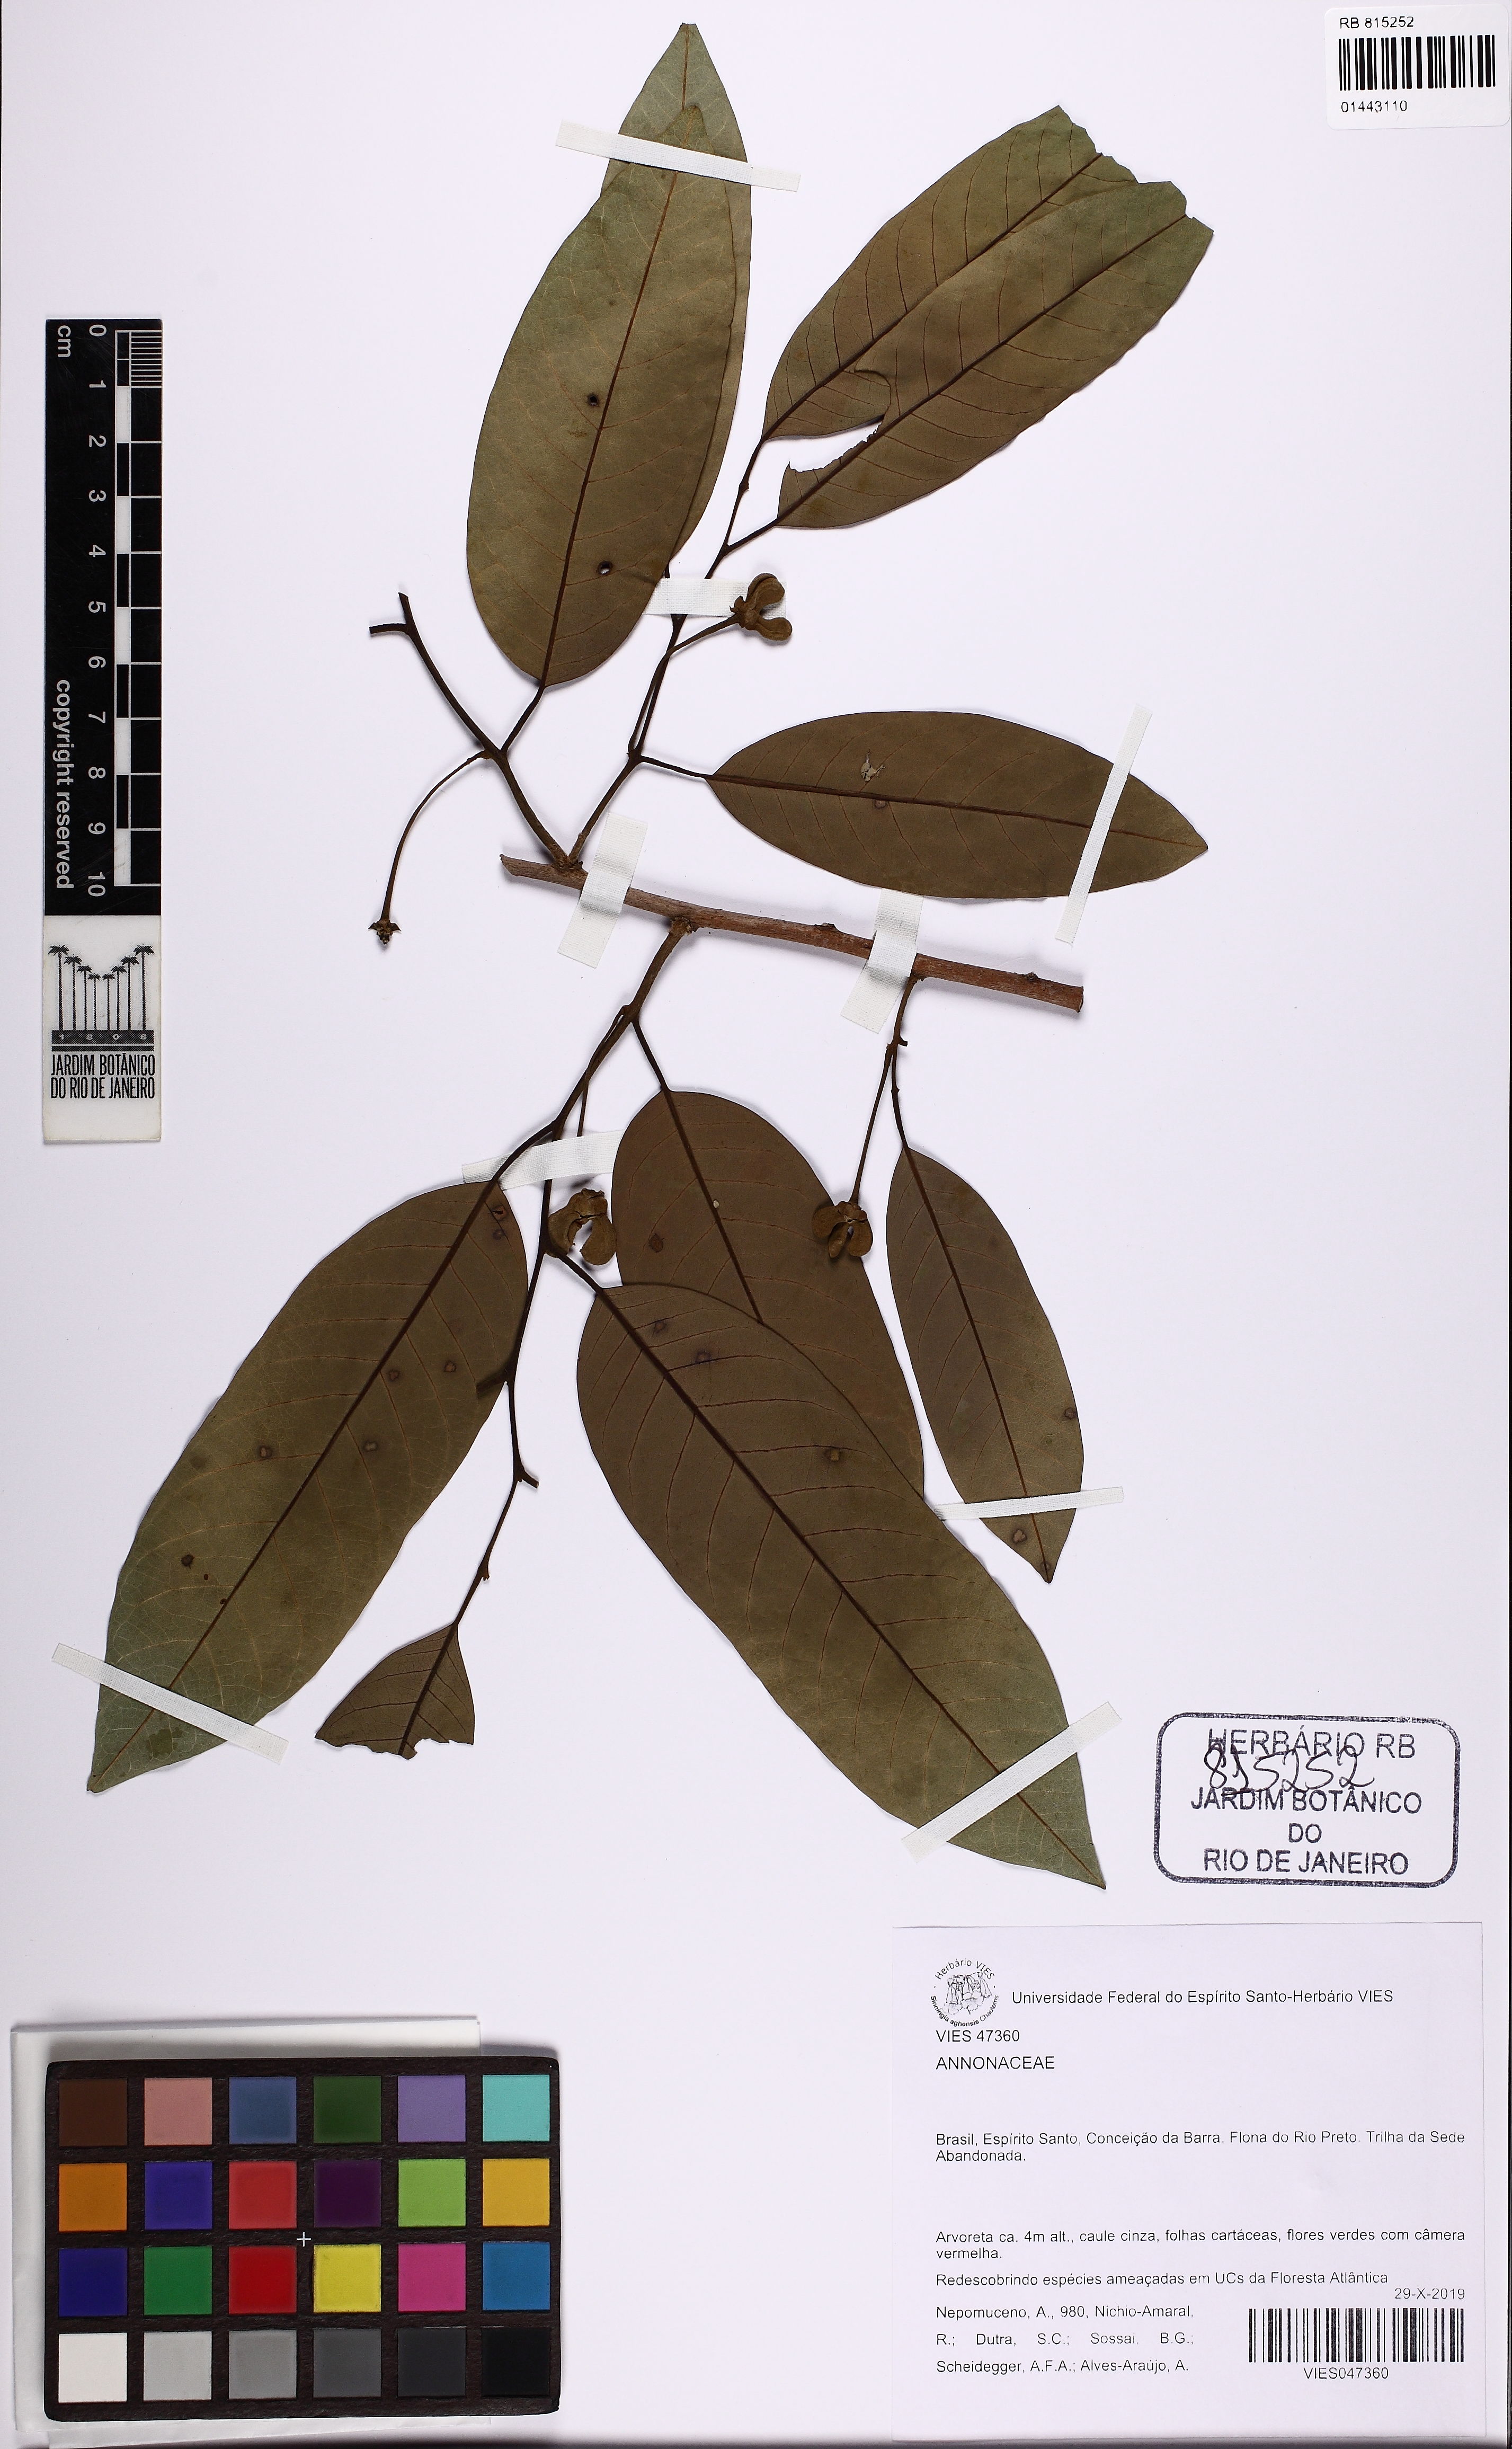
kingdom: Plantae
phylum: Tracheophyta
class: Magnoliopsida
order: Magnoliales
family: Annonaceae
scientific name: Annonaceae
